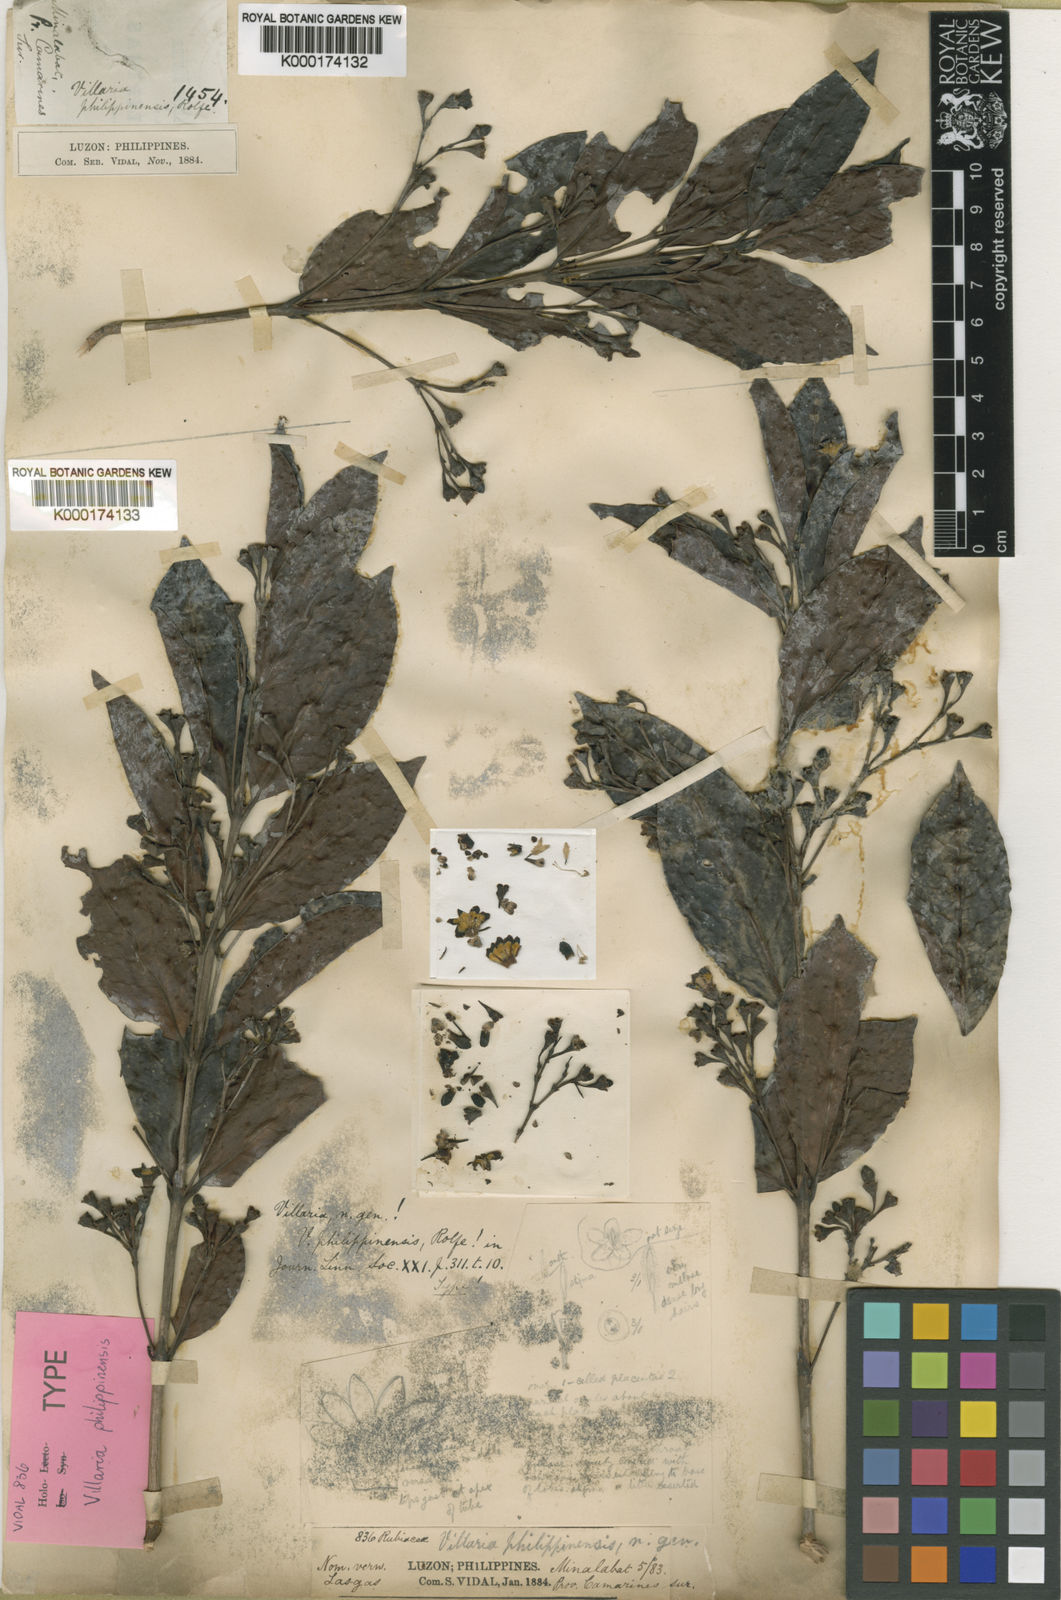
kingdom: Plantae
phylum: Tracheophyta
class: Magnoliopsida
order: Gentianales
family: Rubiaceae
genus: Villaria
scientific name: Villaria odorata
